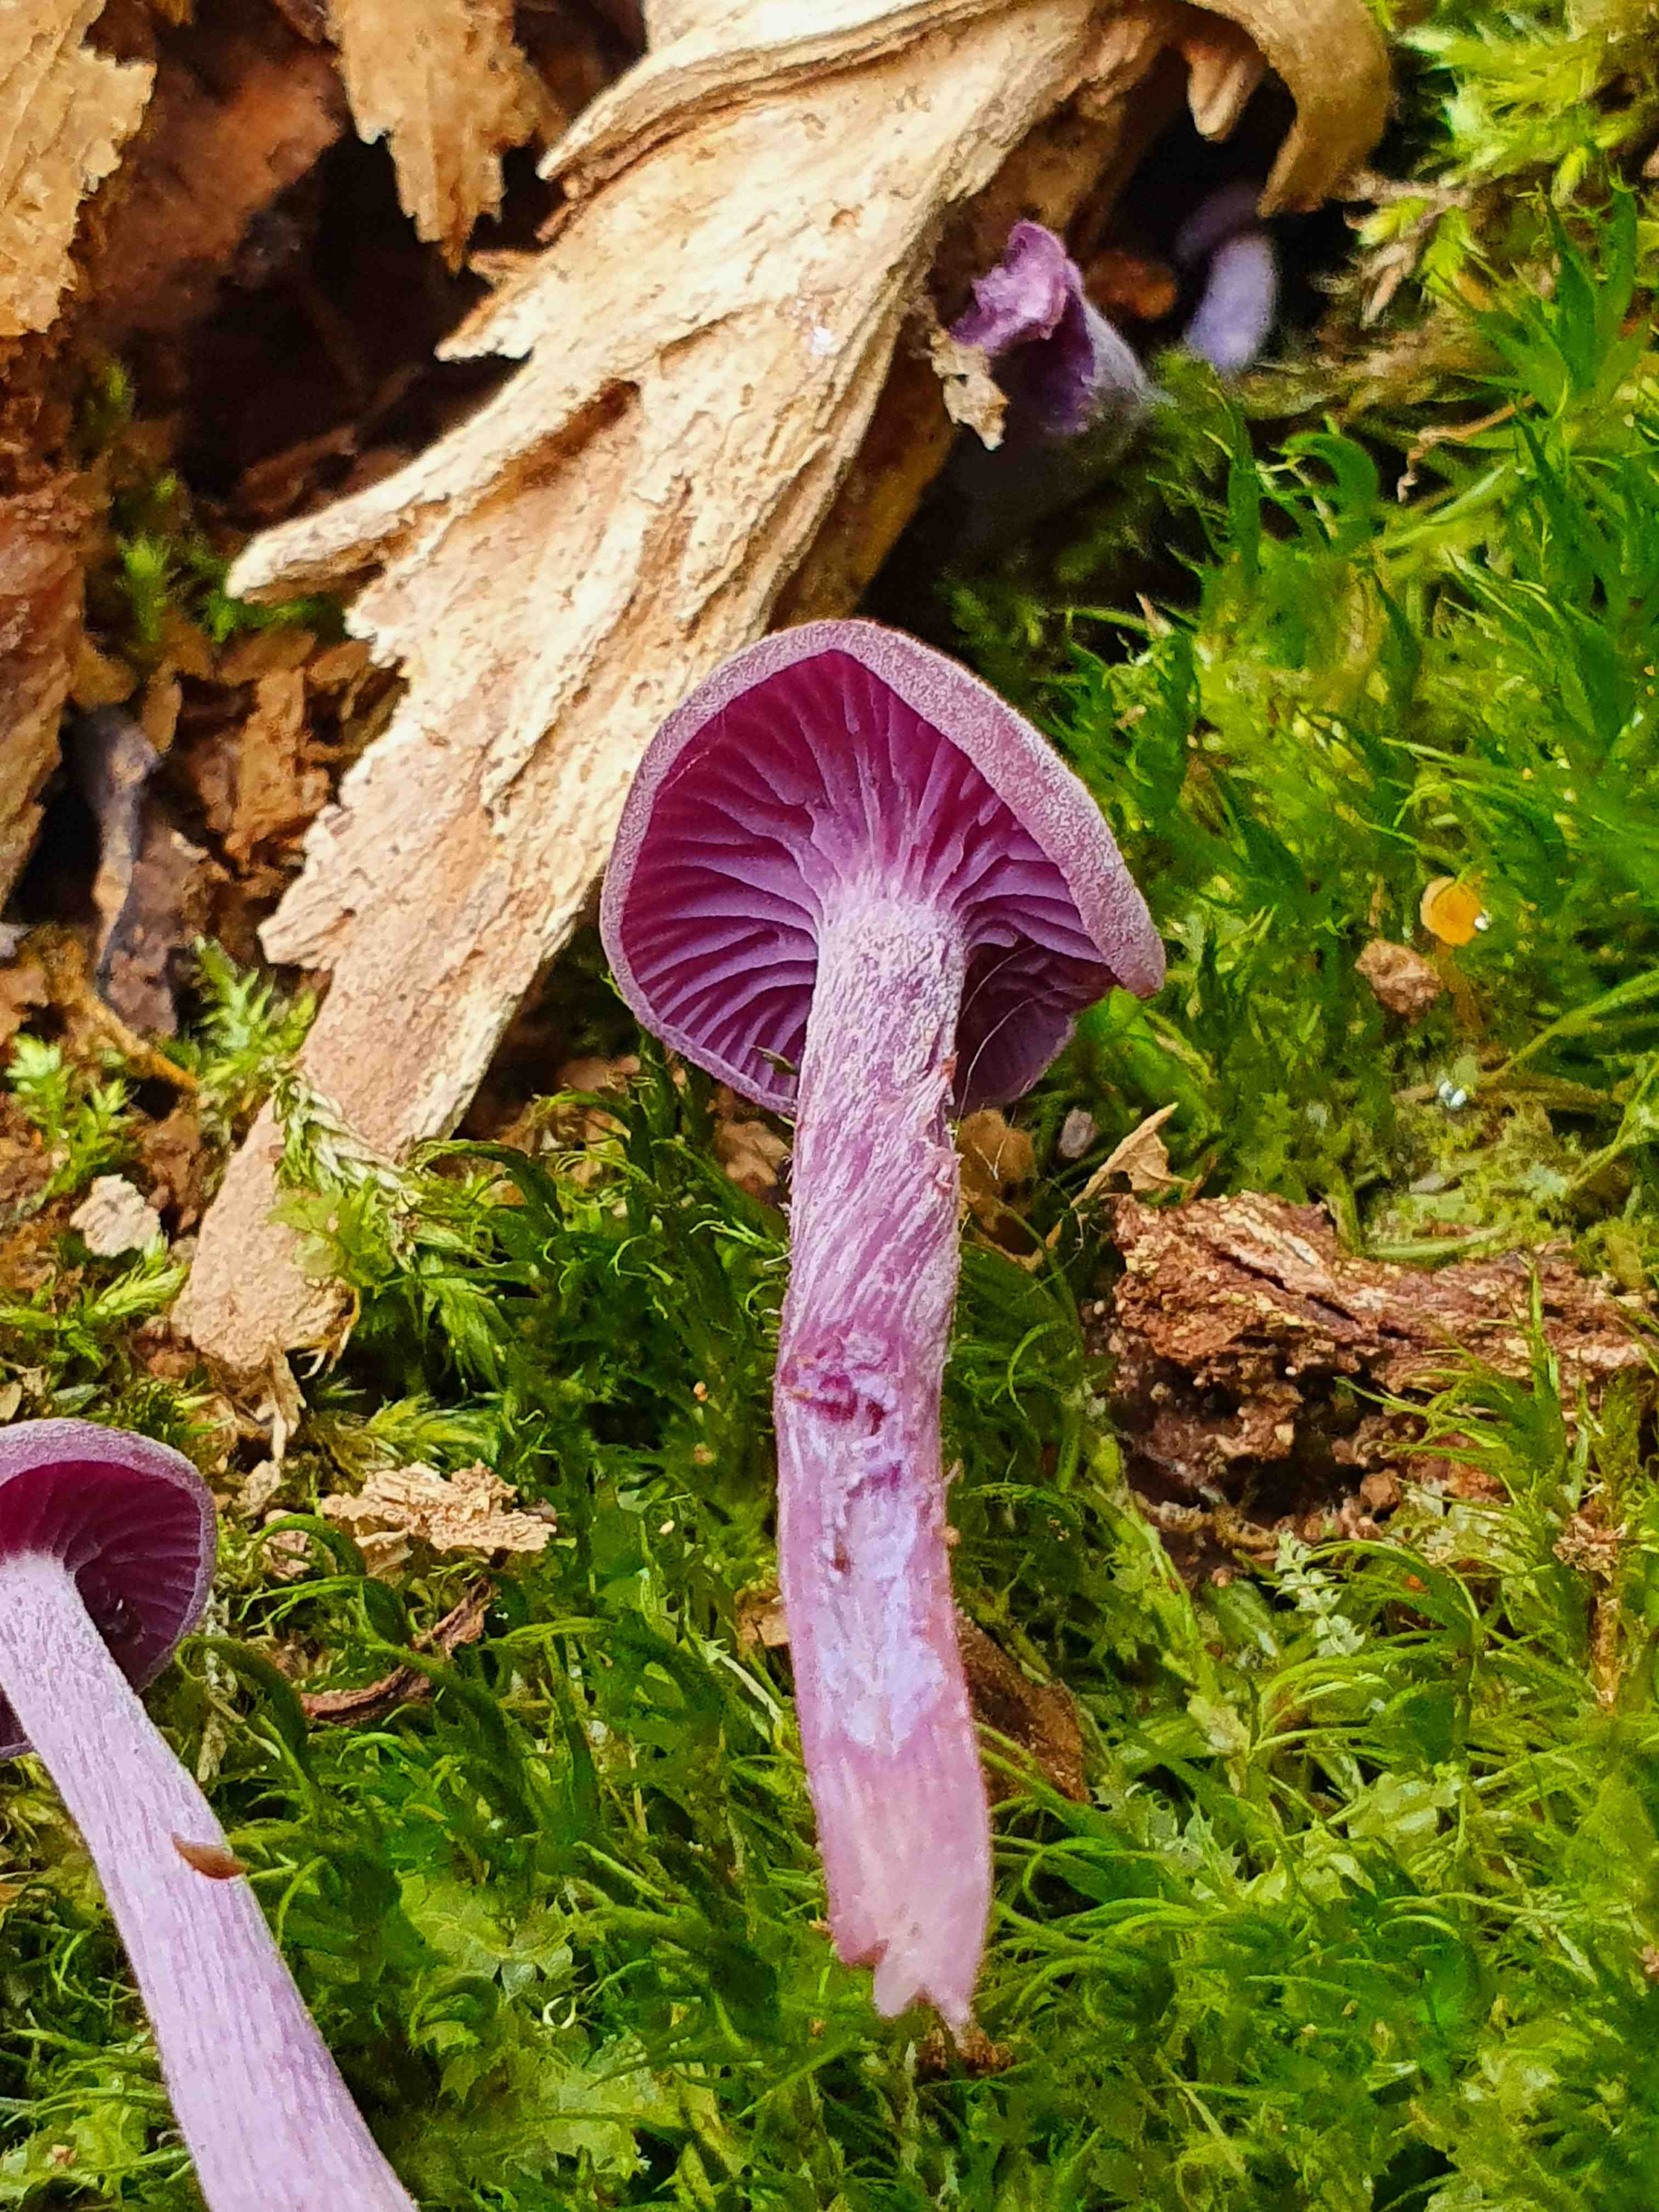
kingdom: Fungi
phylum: Basidiomycota
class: Agaricomycetes
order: Agaricales
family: Hydnangiaceae
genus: Laccaria
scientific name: Laccaria amethystina
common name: violet ametysthat
